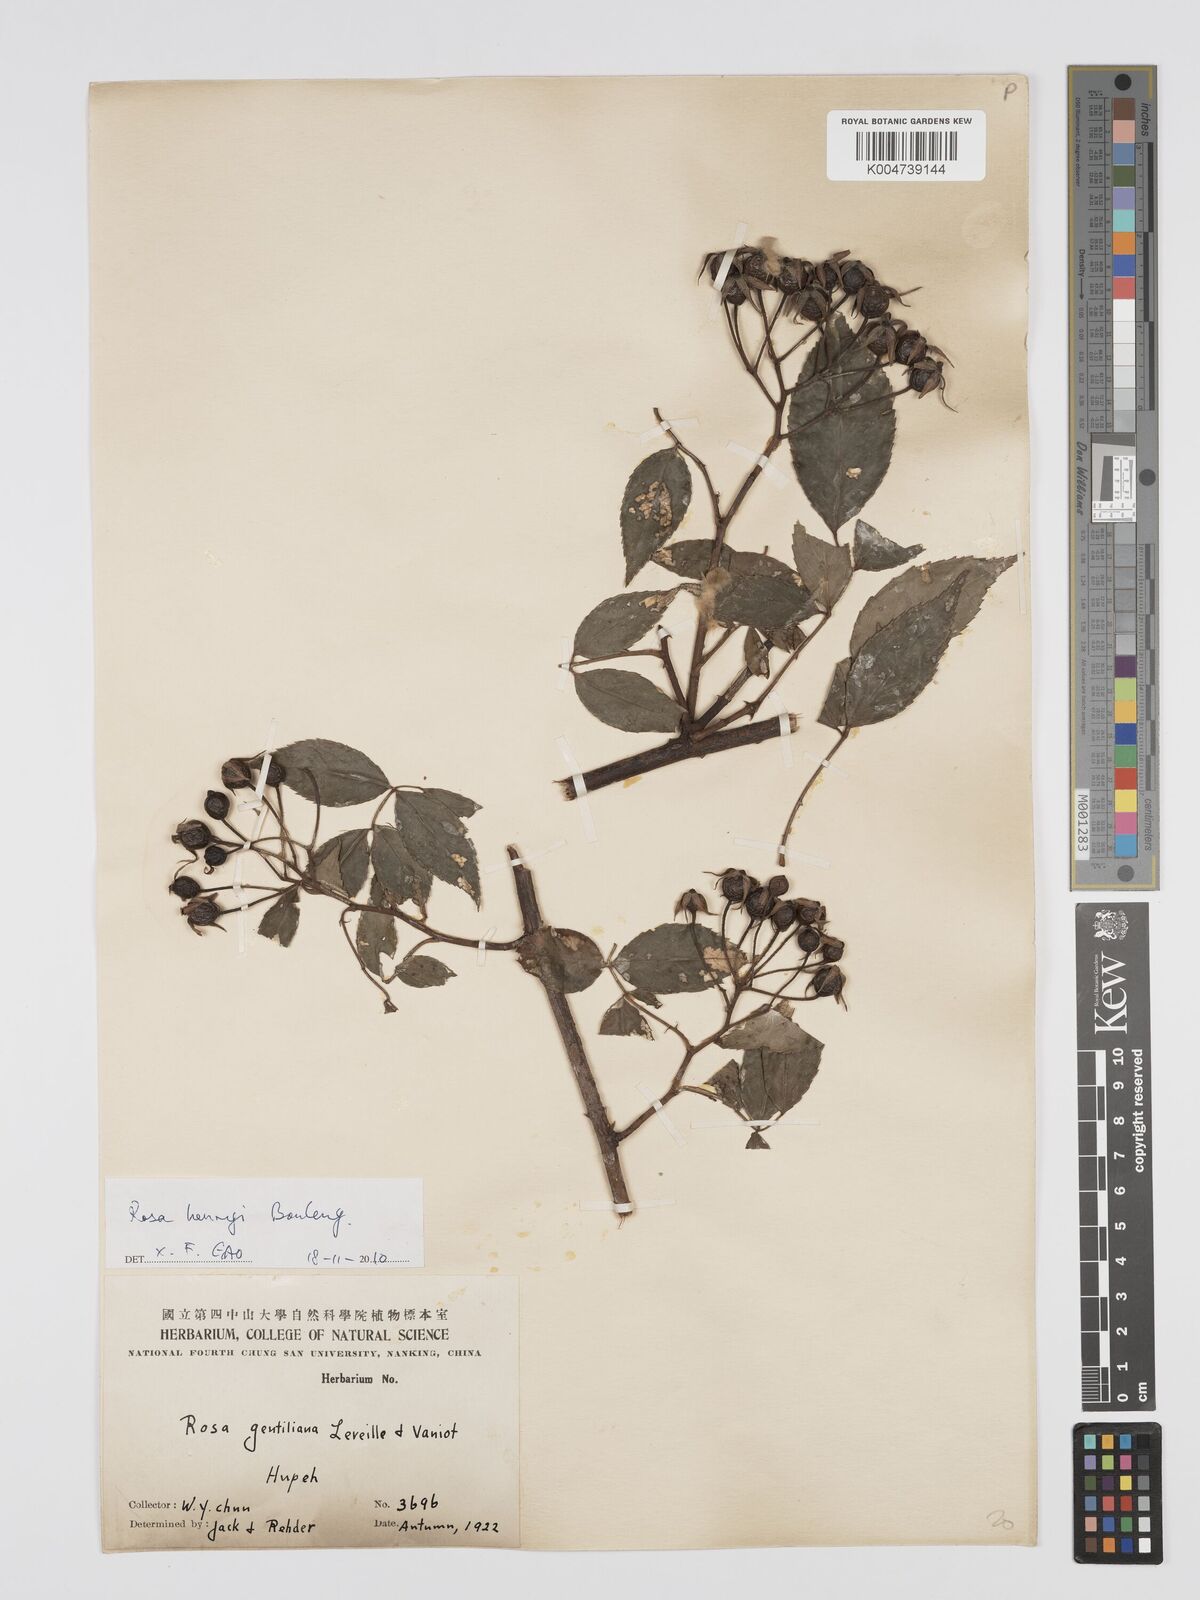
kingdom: Plantae
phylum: Tracheophyta
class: Magnoliopsida
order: Rosales
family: Rosaceae
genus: Rosa
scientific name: Rosa henryi
